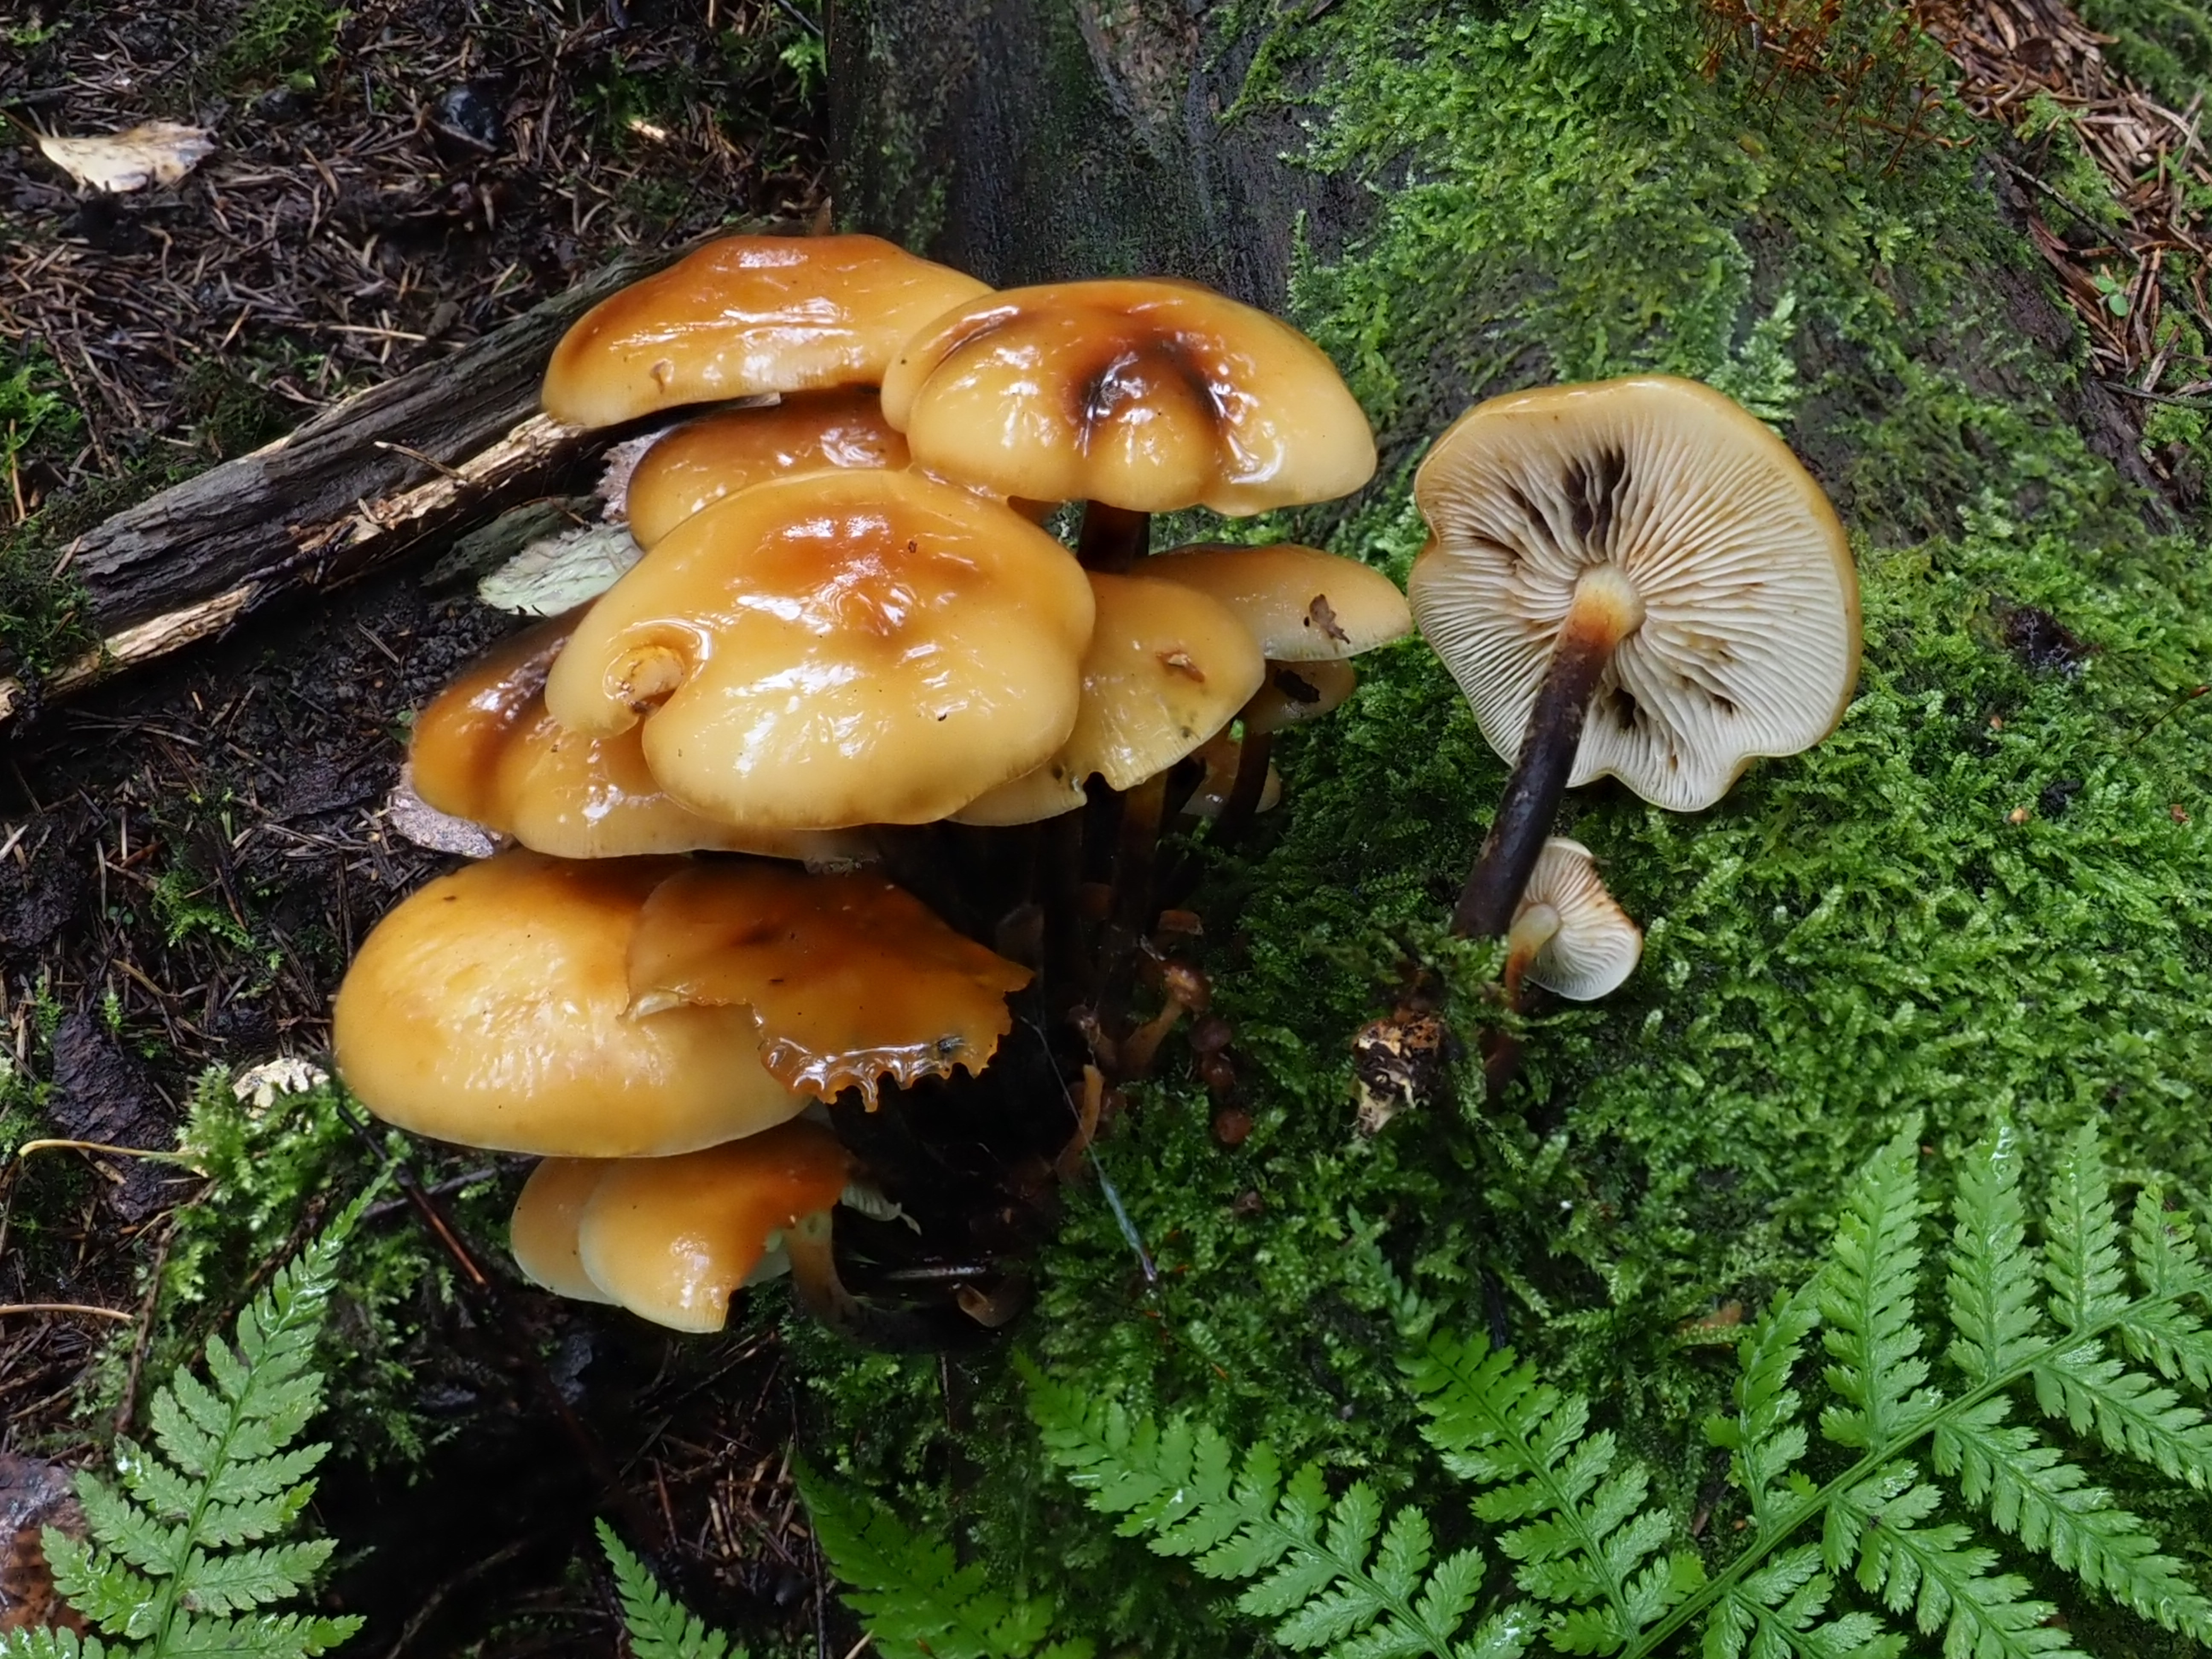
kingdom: Fungi
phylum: Basidiomycota
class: Agaricomycetes
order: Agaricales
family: Physalacriaceae
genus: Flammulina
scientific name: Flammulina velutipes
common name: Velvet shank
